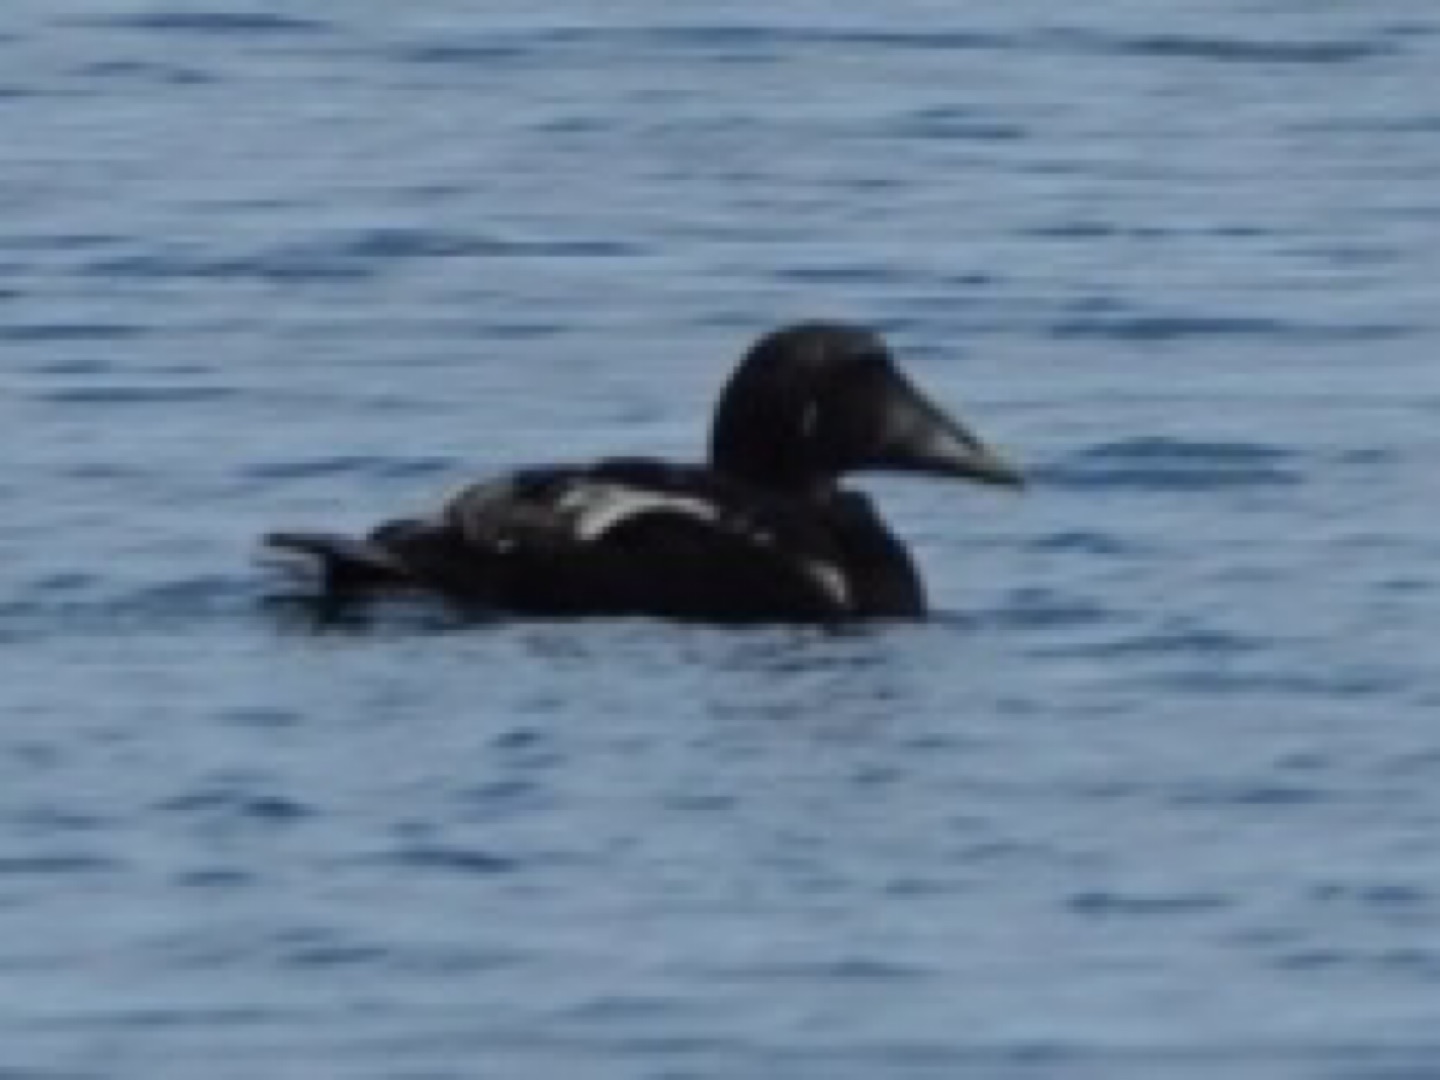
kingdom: Animalia
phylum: Chordata
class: Aves
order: Anseriformes
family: Anatidae
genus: Somateria
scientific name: Somateria mollissima
